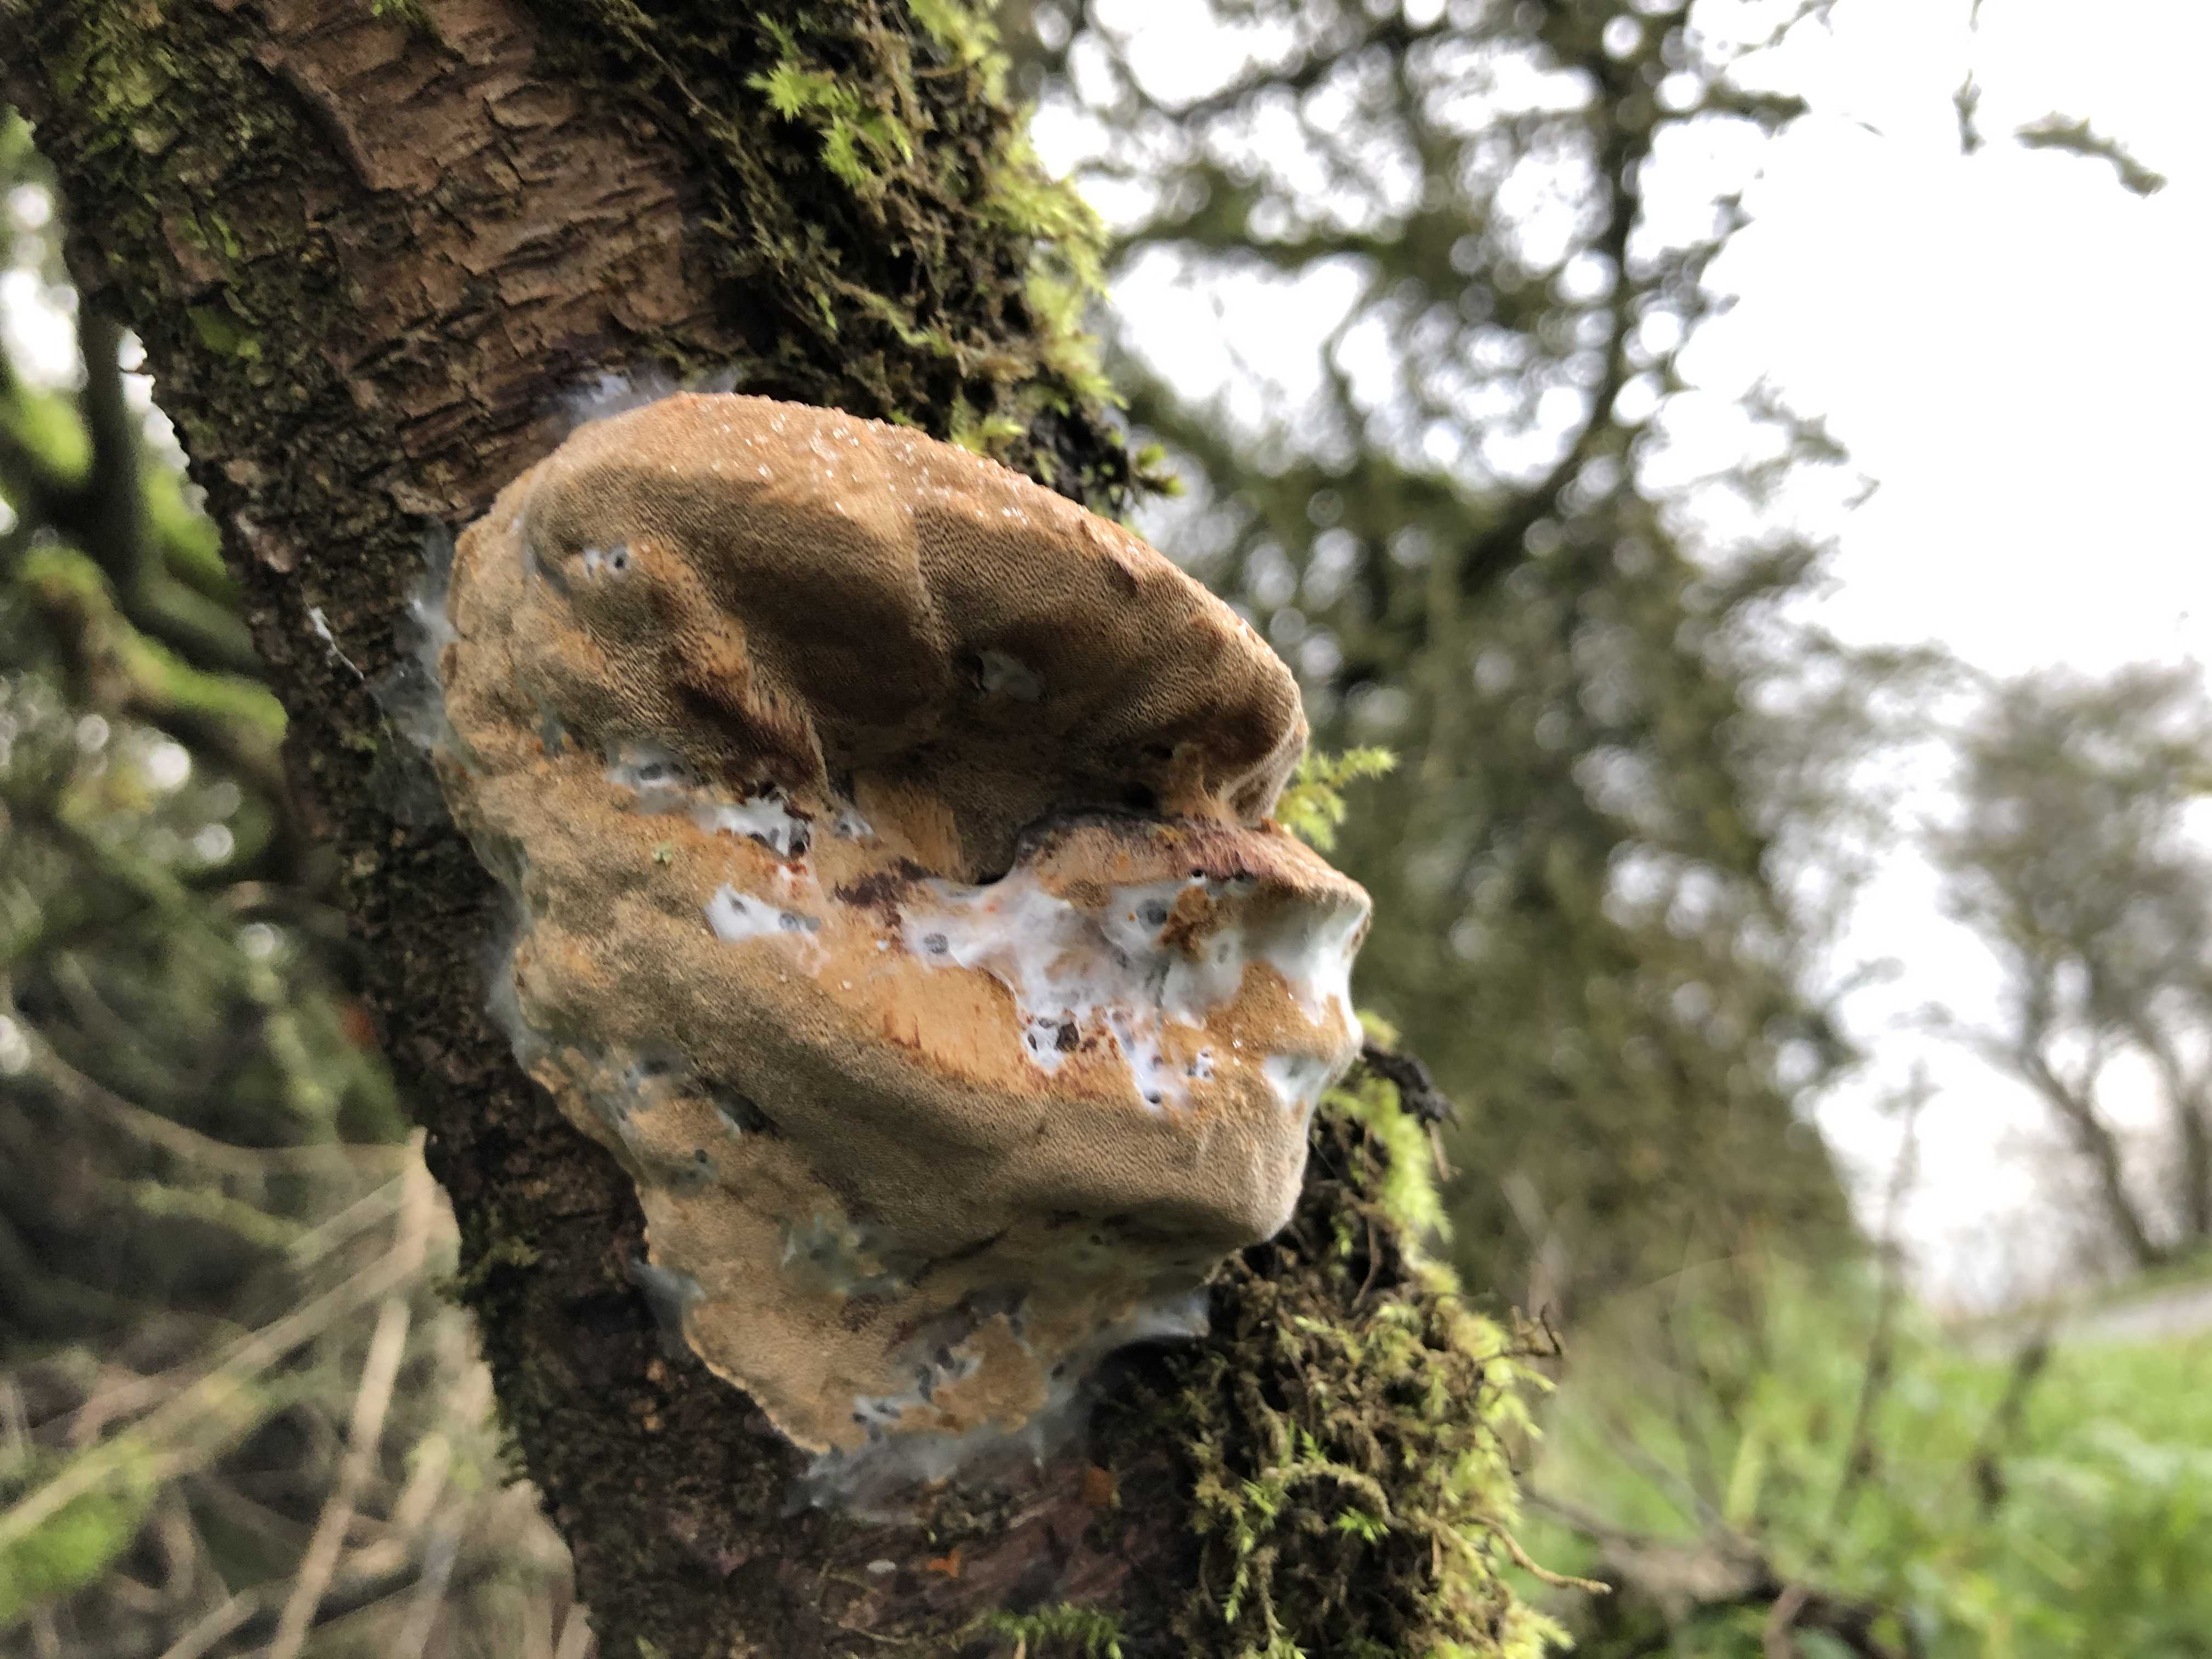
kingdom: Fungi
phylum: Basidiomycota
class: Agaricomycetes
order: Hymenochaetales
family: Hymenochaetaceae
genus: Phellinus
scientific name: Phellinus pomaceus
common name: blomme-ildporesvamp
